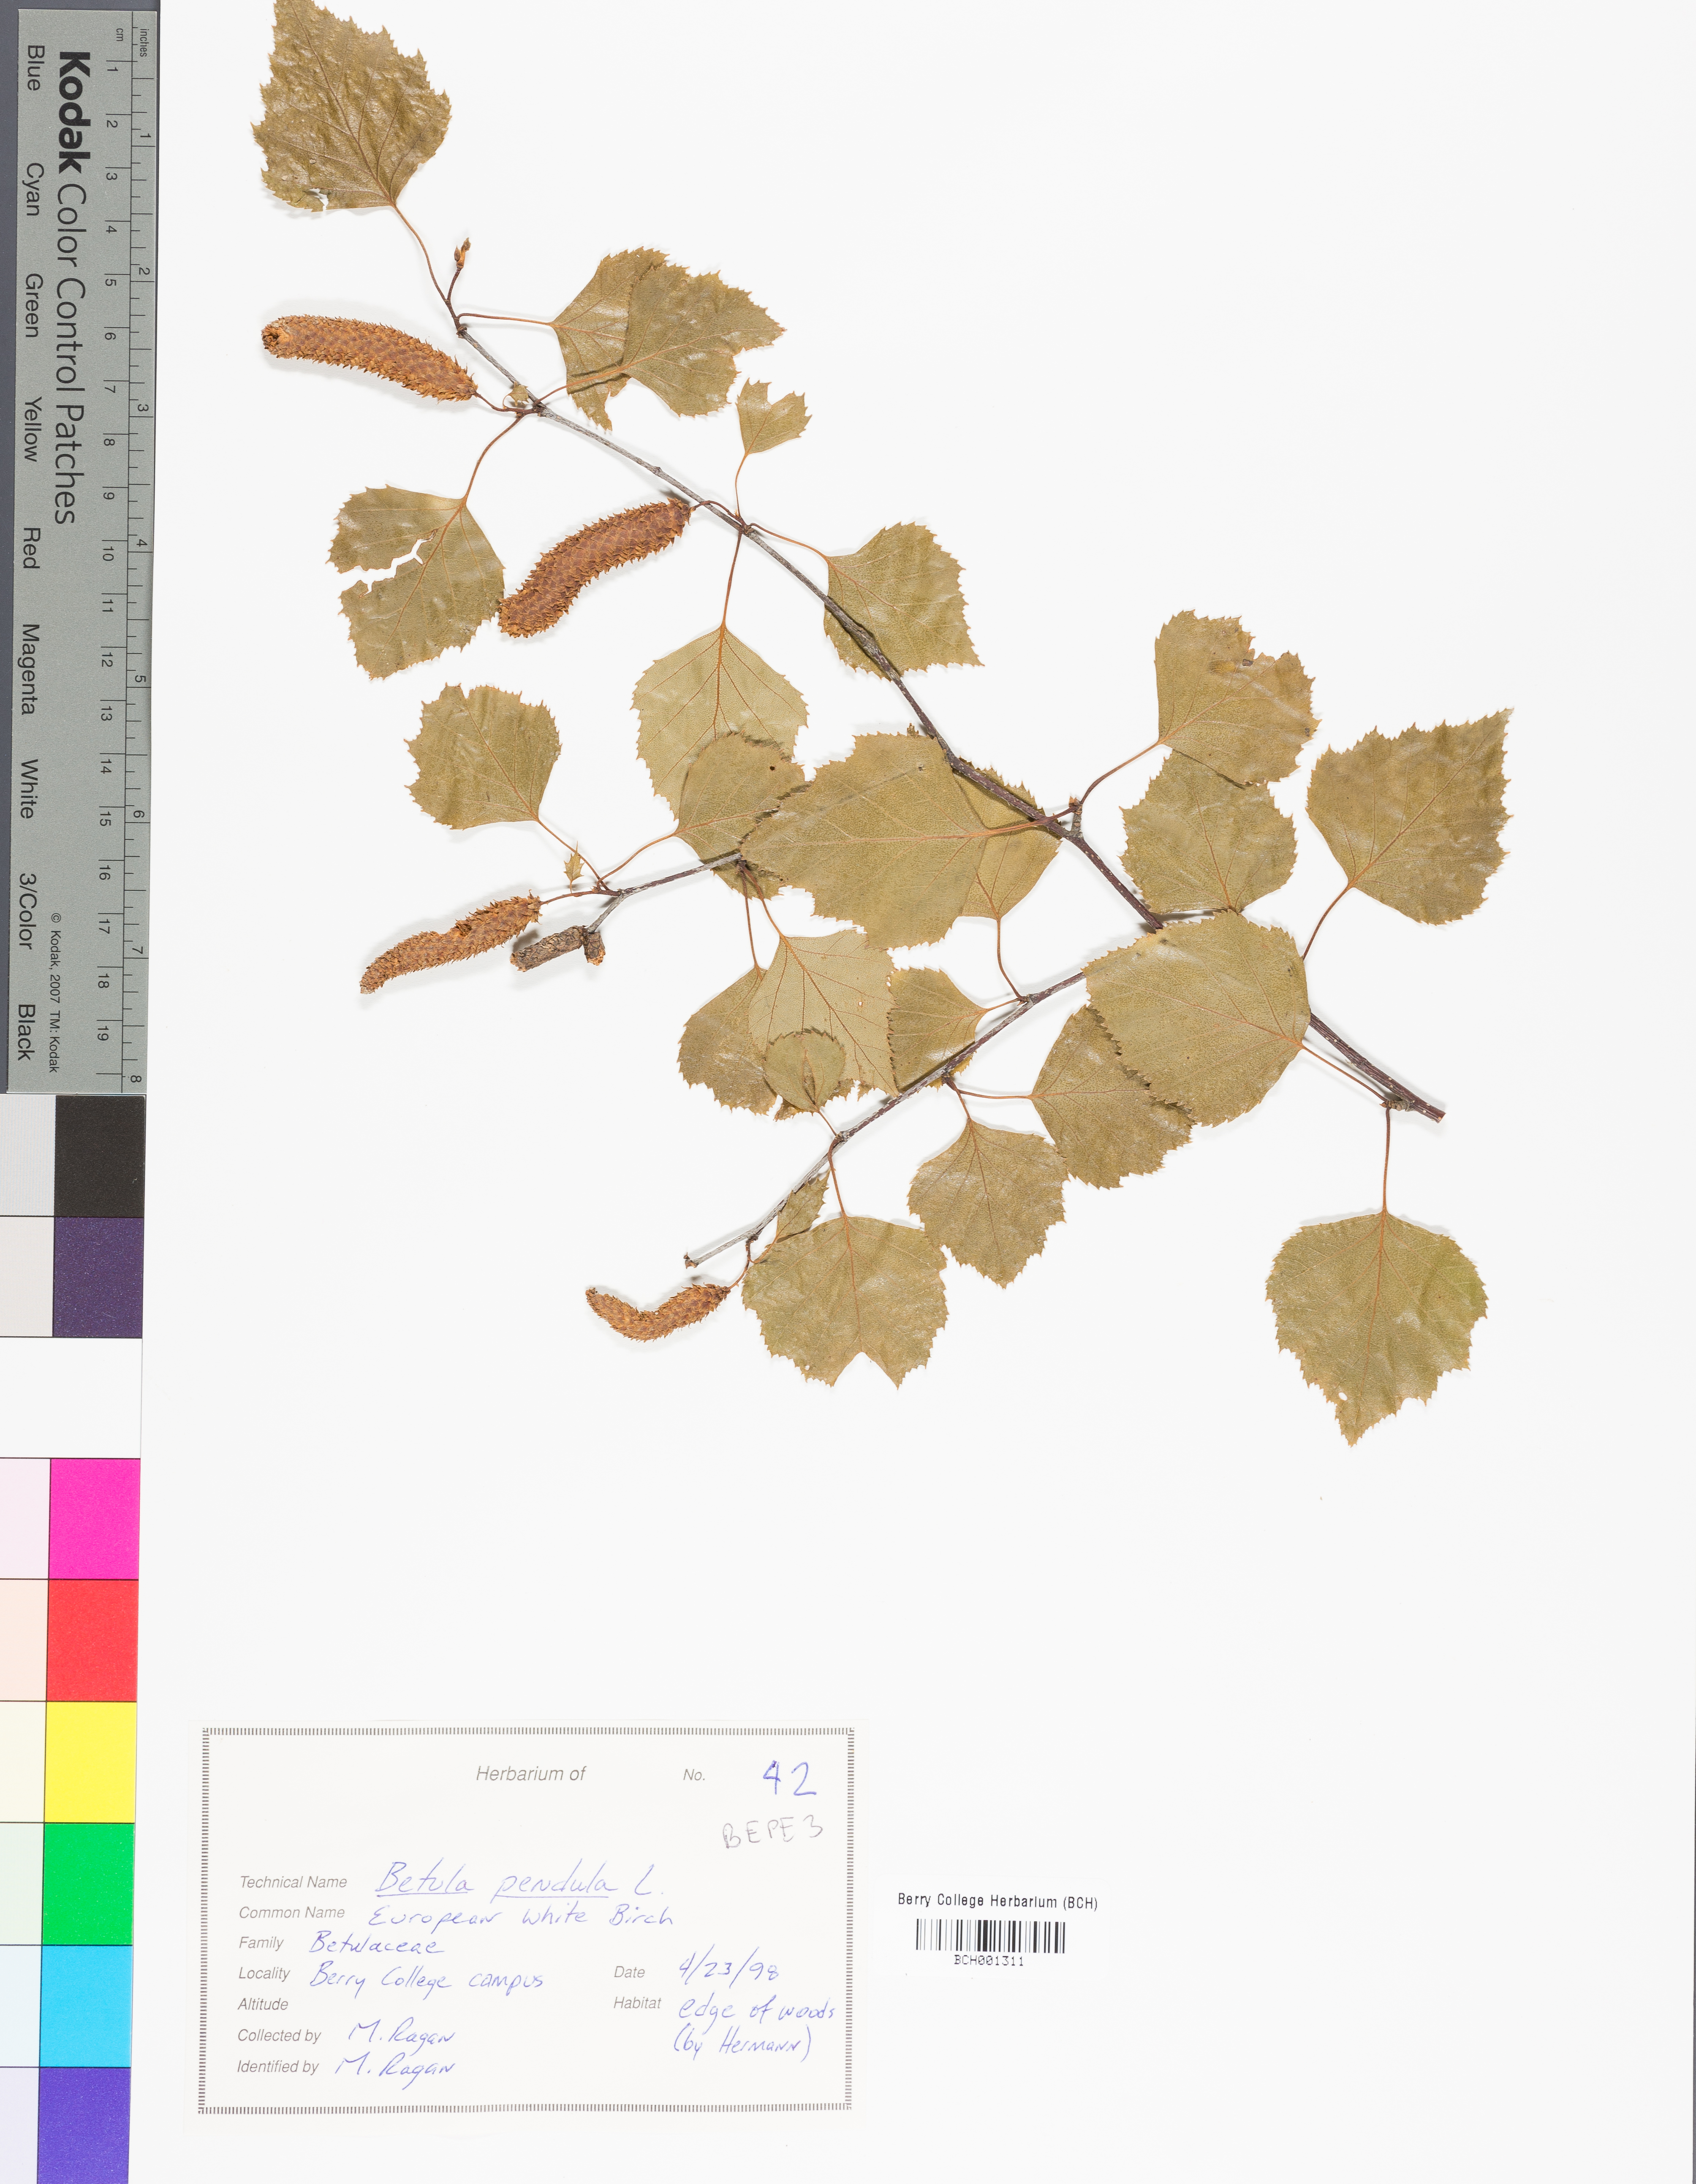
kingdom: Plantae
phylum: Tracheophyta
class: Magnoliopsida
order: Fagales
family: Betulaceae
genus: Betula
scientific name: Betula pendula
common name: Silver birch
